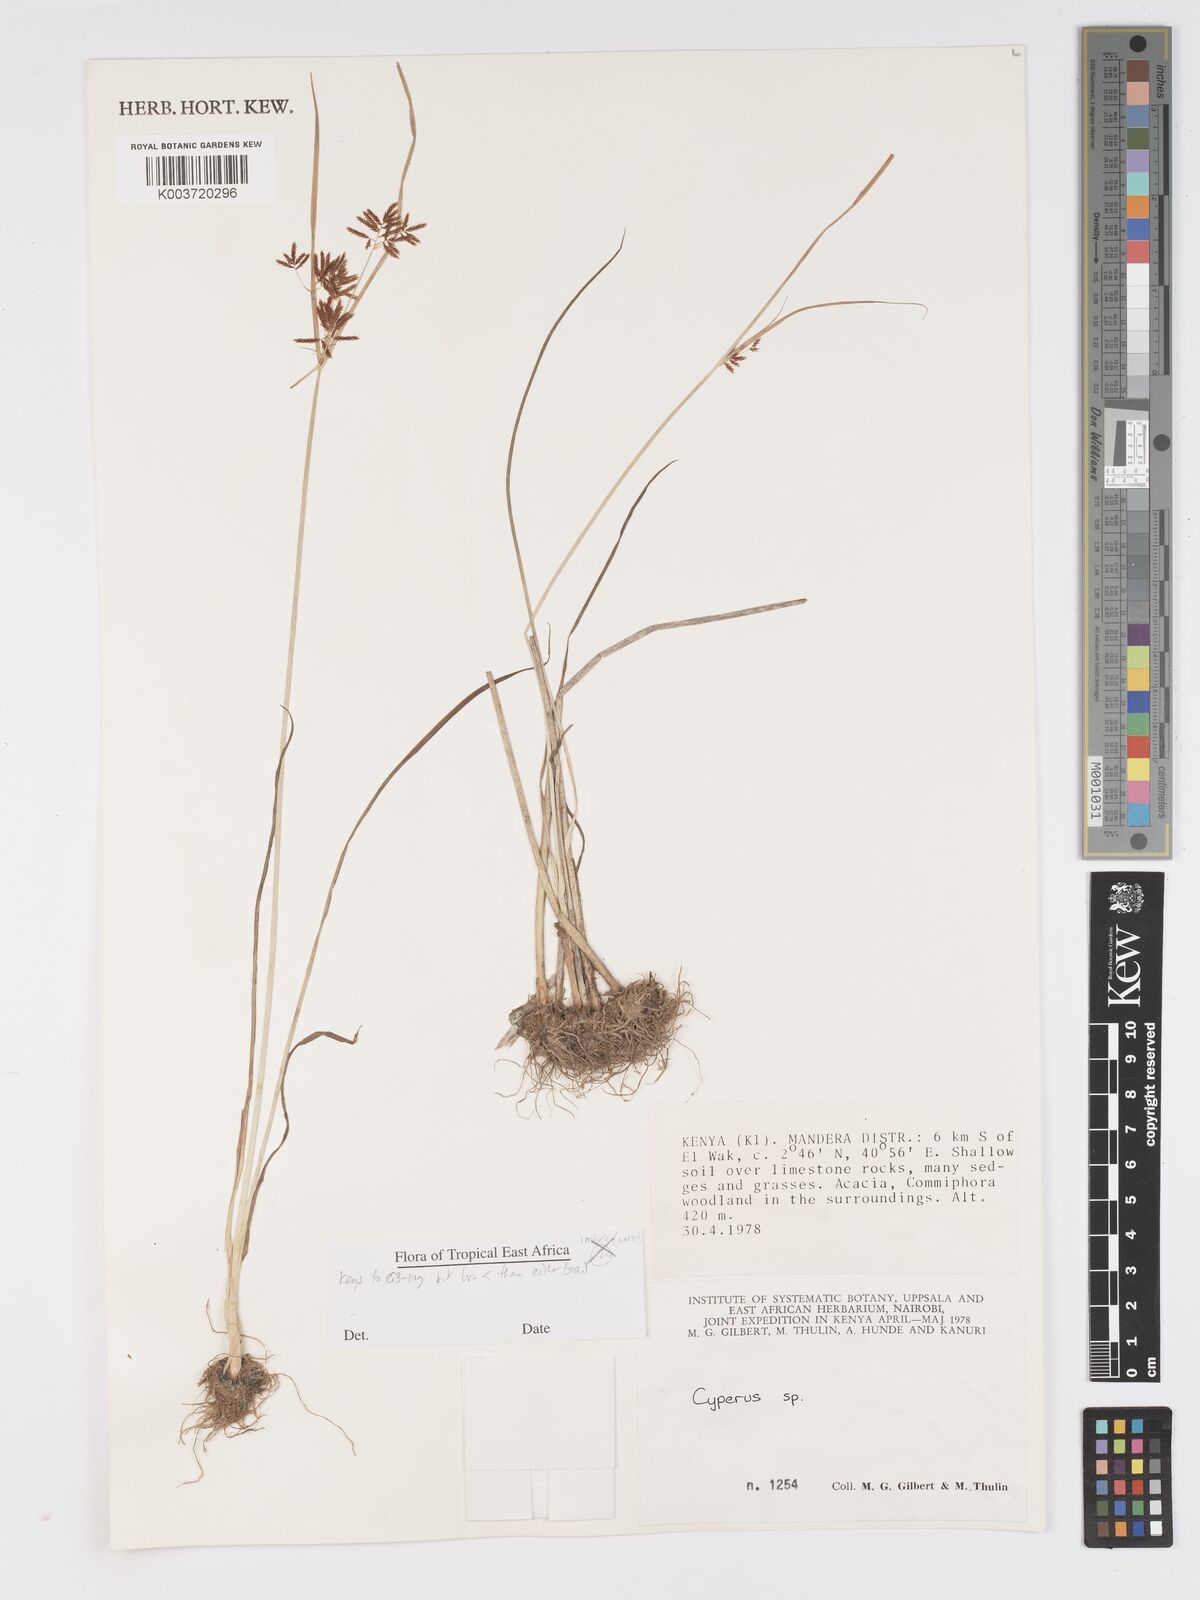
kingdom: Plantae
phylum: Tracheophyta
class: Liliopsida
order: Poales
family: Cyperaceae
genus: Cyperus
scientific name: Cyperus
